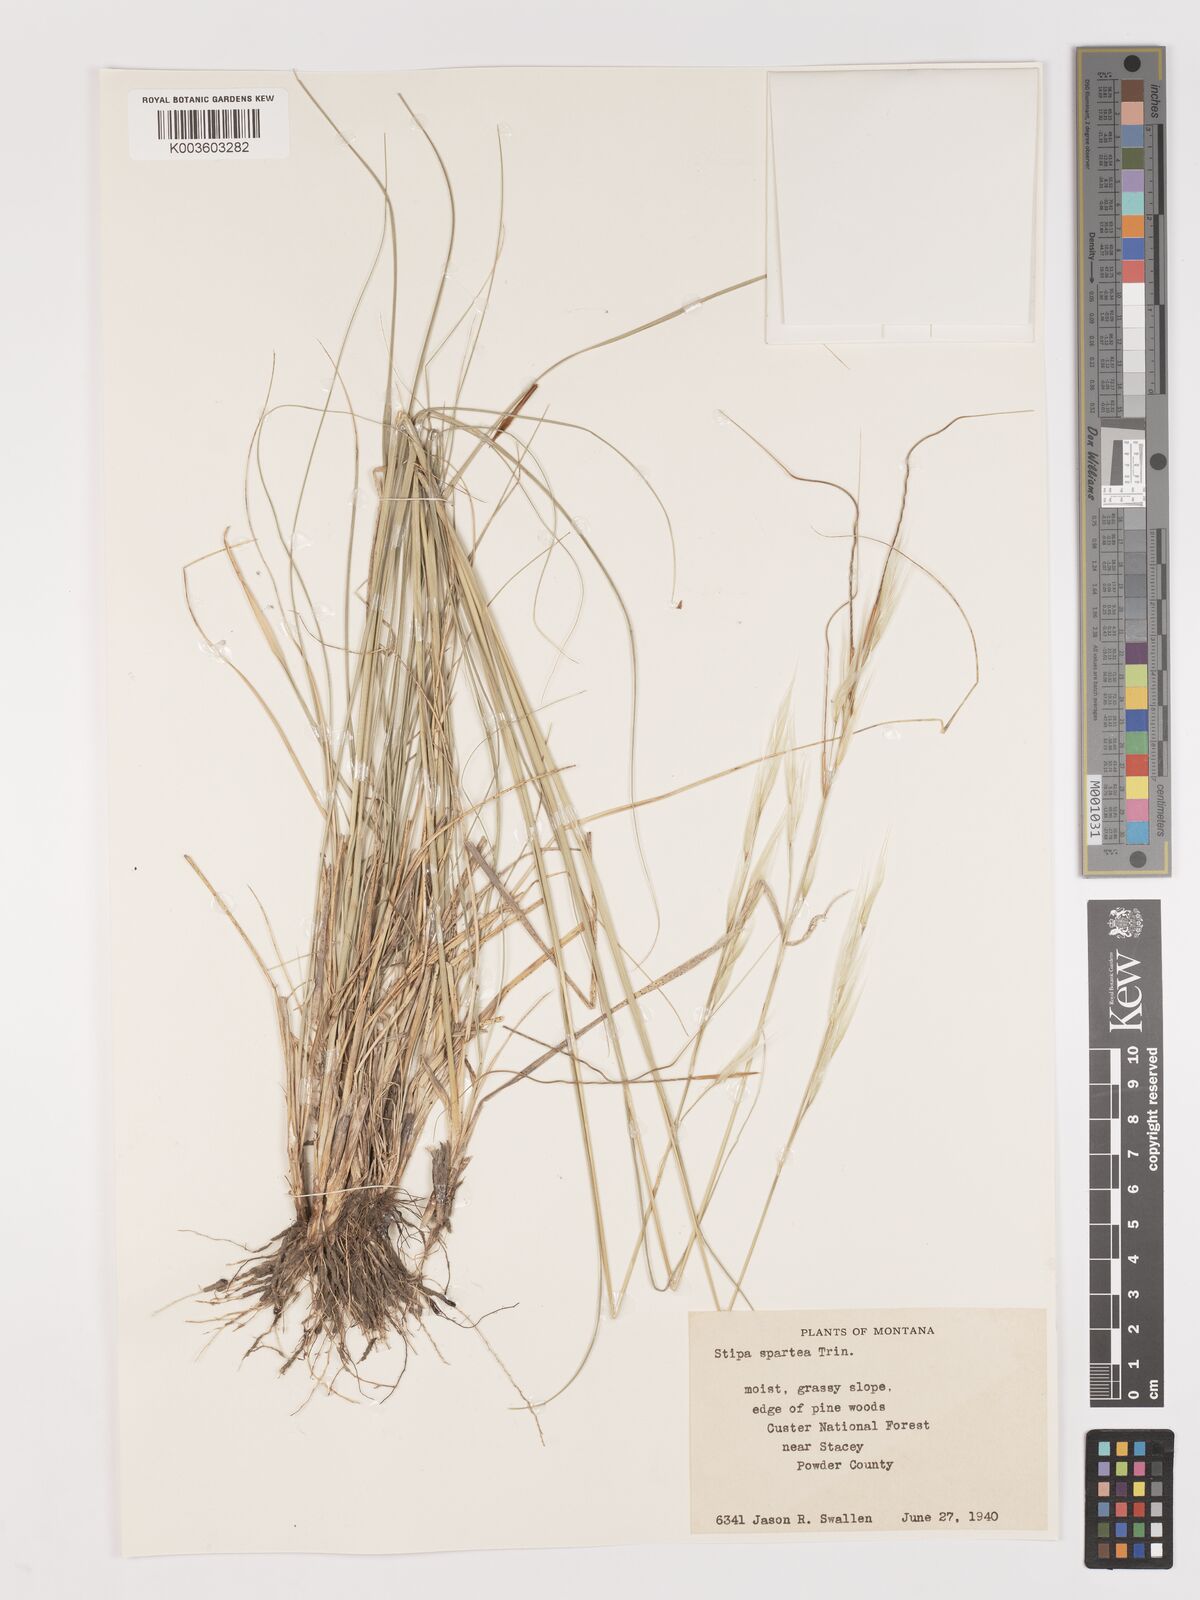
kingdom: Plantae
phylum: Tracheophyta
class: Liliopsida
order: Poales
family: Poaceae
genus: Hesperostipa
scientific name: Hesperostipa spartea
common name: Porcupine grass
